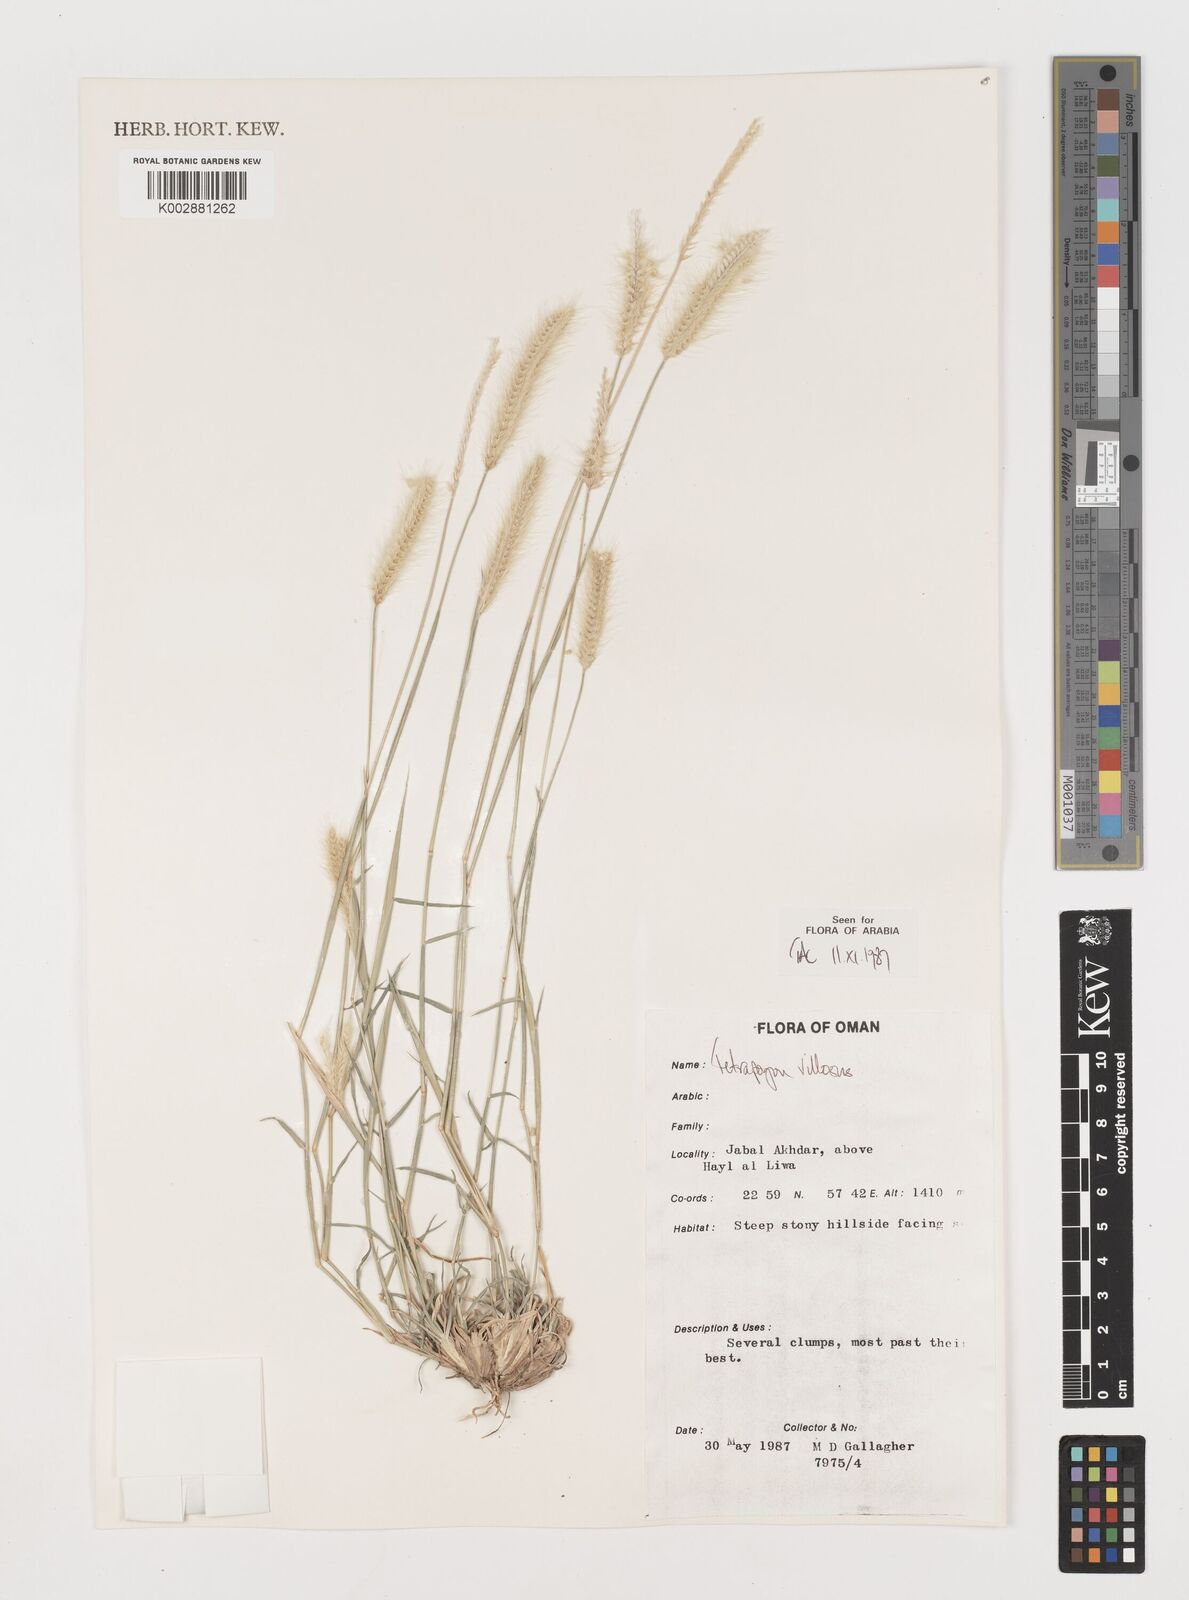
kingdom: Plantae
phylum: Tracheophyta
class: Liliopsida
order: Poales
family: Poaceae
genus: Tetrapogon
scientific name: Tetrapogon villosus
